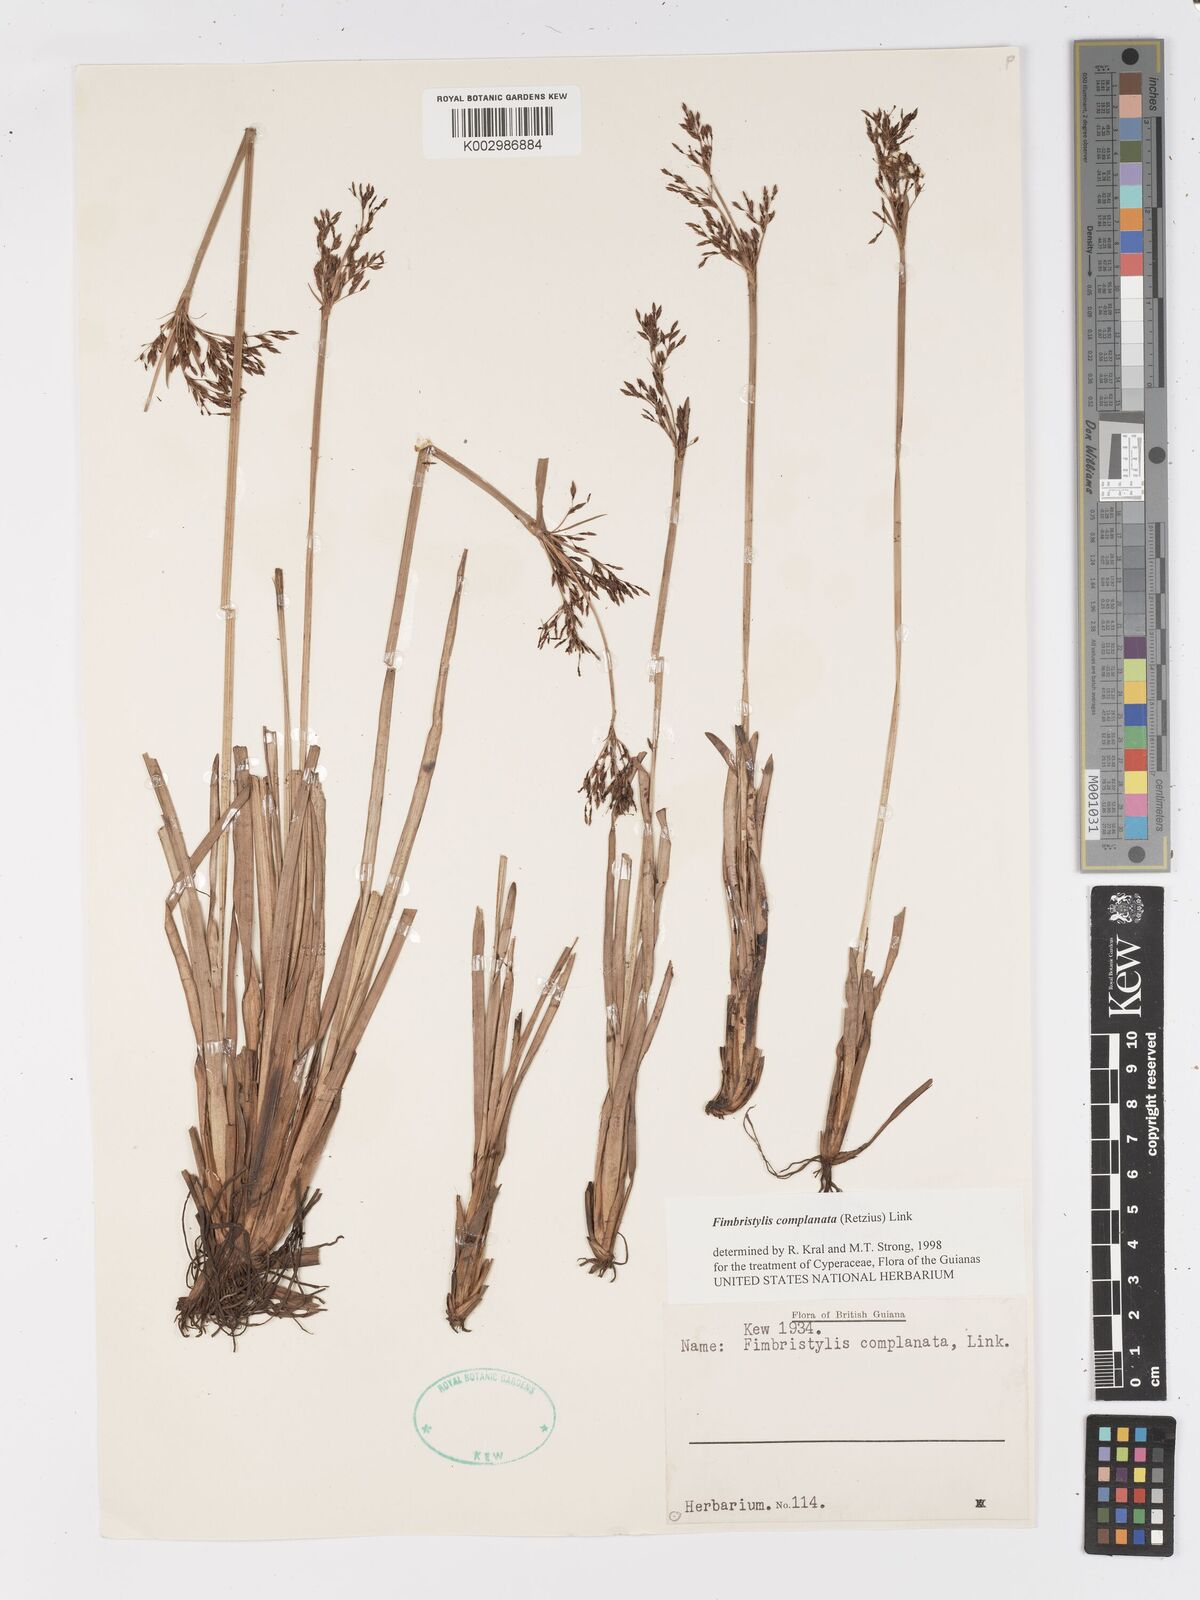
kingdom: Plantae
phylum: Tracheophyta
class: Liliopsida
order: Poales
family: Cyperaceae
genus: Fimbristylis
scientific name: Fimbristylis complanata
